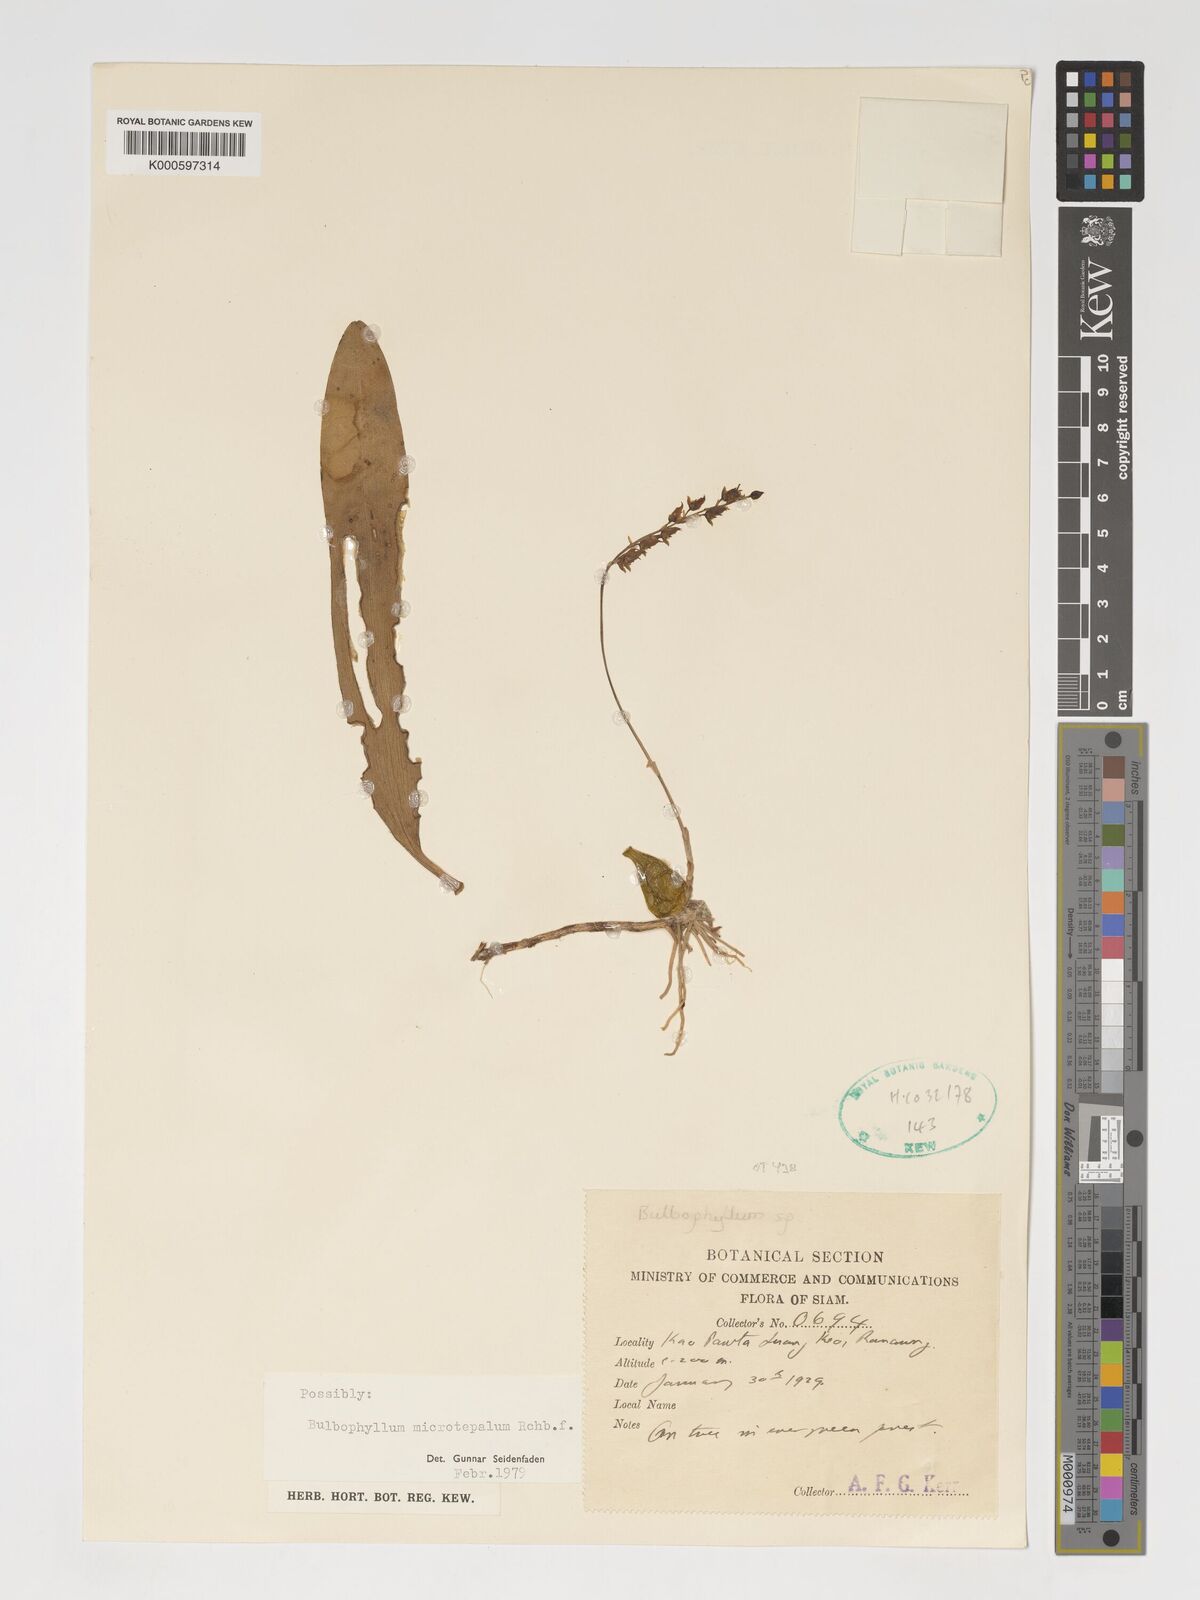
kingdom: Plantae
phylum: Tracheophyta
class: Liliopsida
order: Asparagales
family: Orchidaceae
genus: Bulbophyllum
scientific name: Bulbophyllum microtepalum
